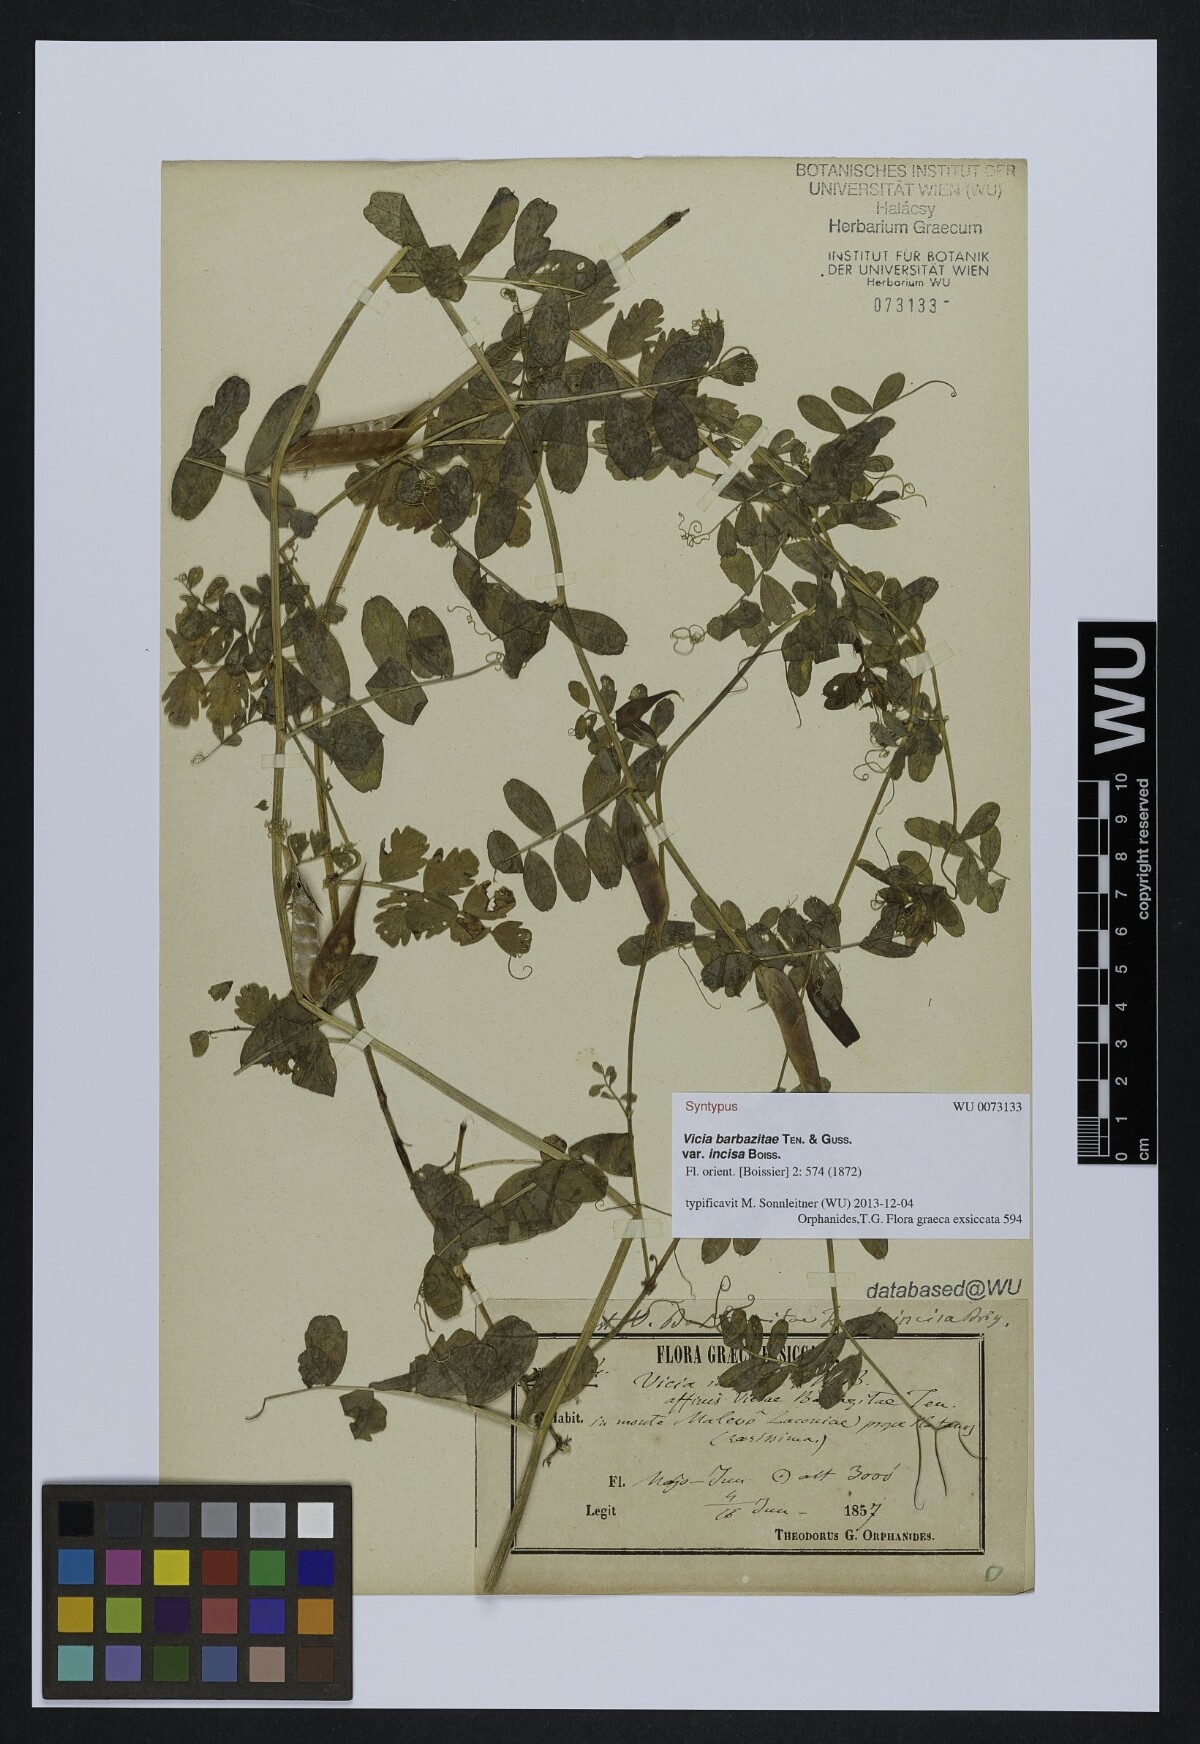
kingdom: Plantae
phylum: Tracheophyta
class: Magnoliopsida
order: Fabales
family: Fabaceae
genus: Vicia
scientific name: Vicia laeta
